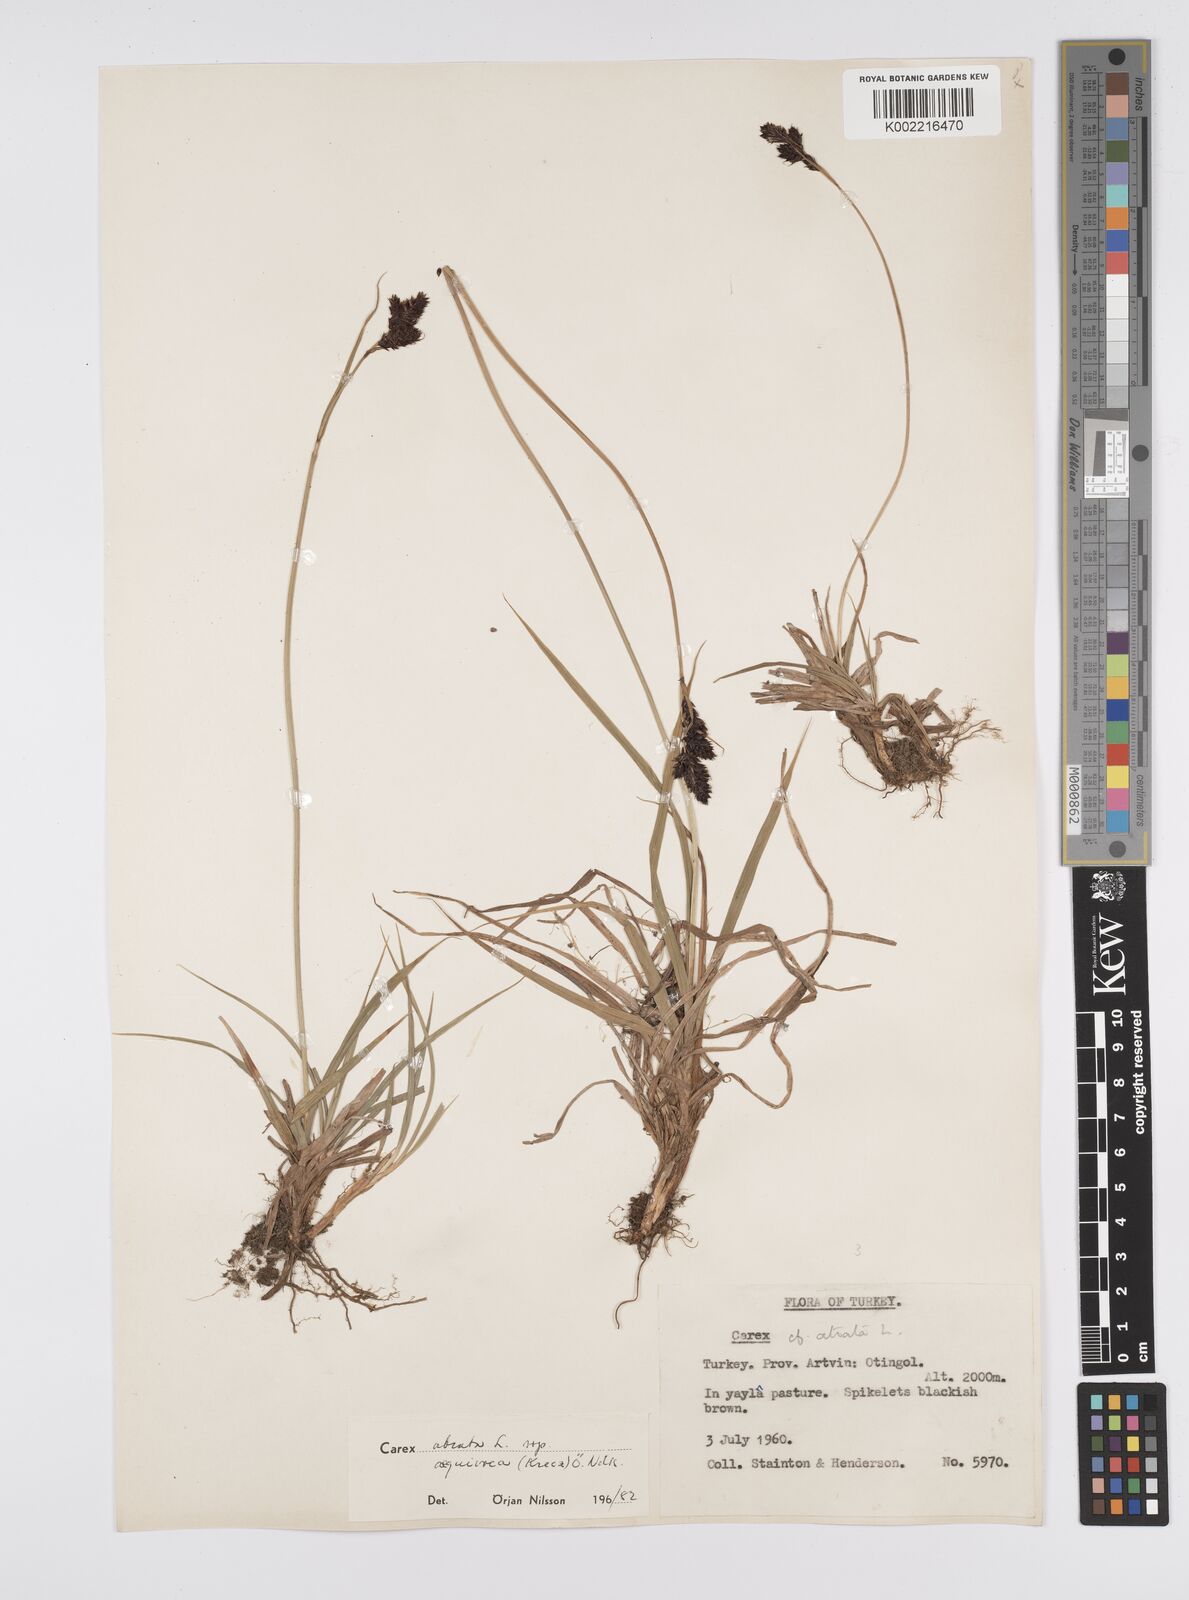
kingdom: Plantae
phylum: Tracheophyta
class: Liliopsida
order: Poales
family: Cyperaceae
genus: Carex
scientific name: Carex atrata
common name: Black alpine sedge
